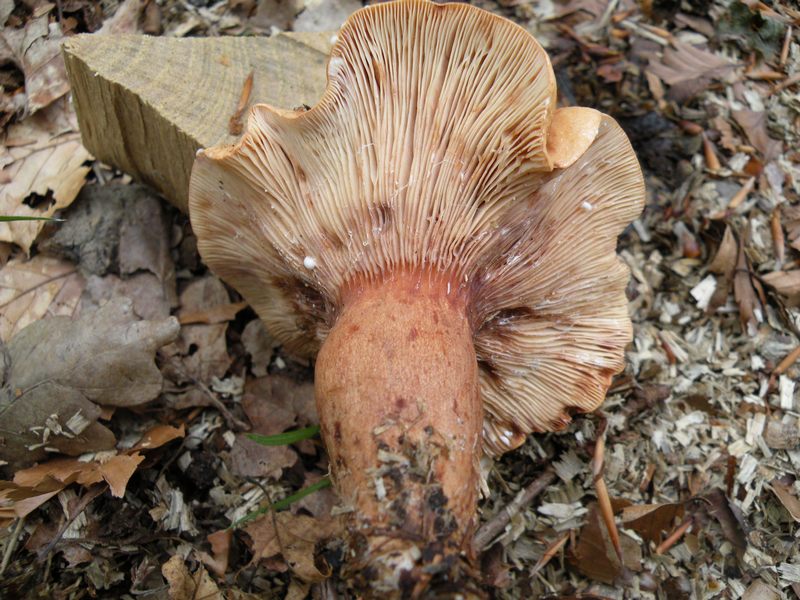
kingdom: Fungi
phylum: Basidiomycota
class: Agaricomycetes
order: Russulales
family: Russulaceae
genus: Lactarius
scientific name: Lactarius rubrocinctus
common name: halsbånd-mælkehat
